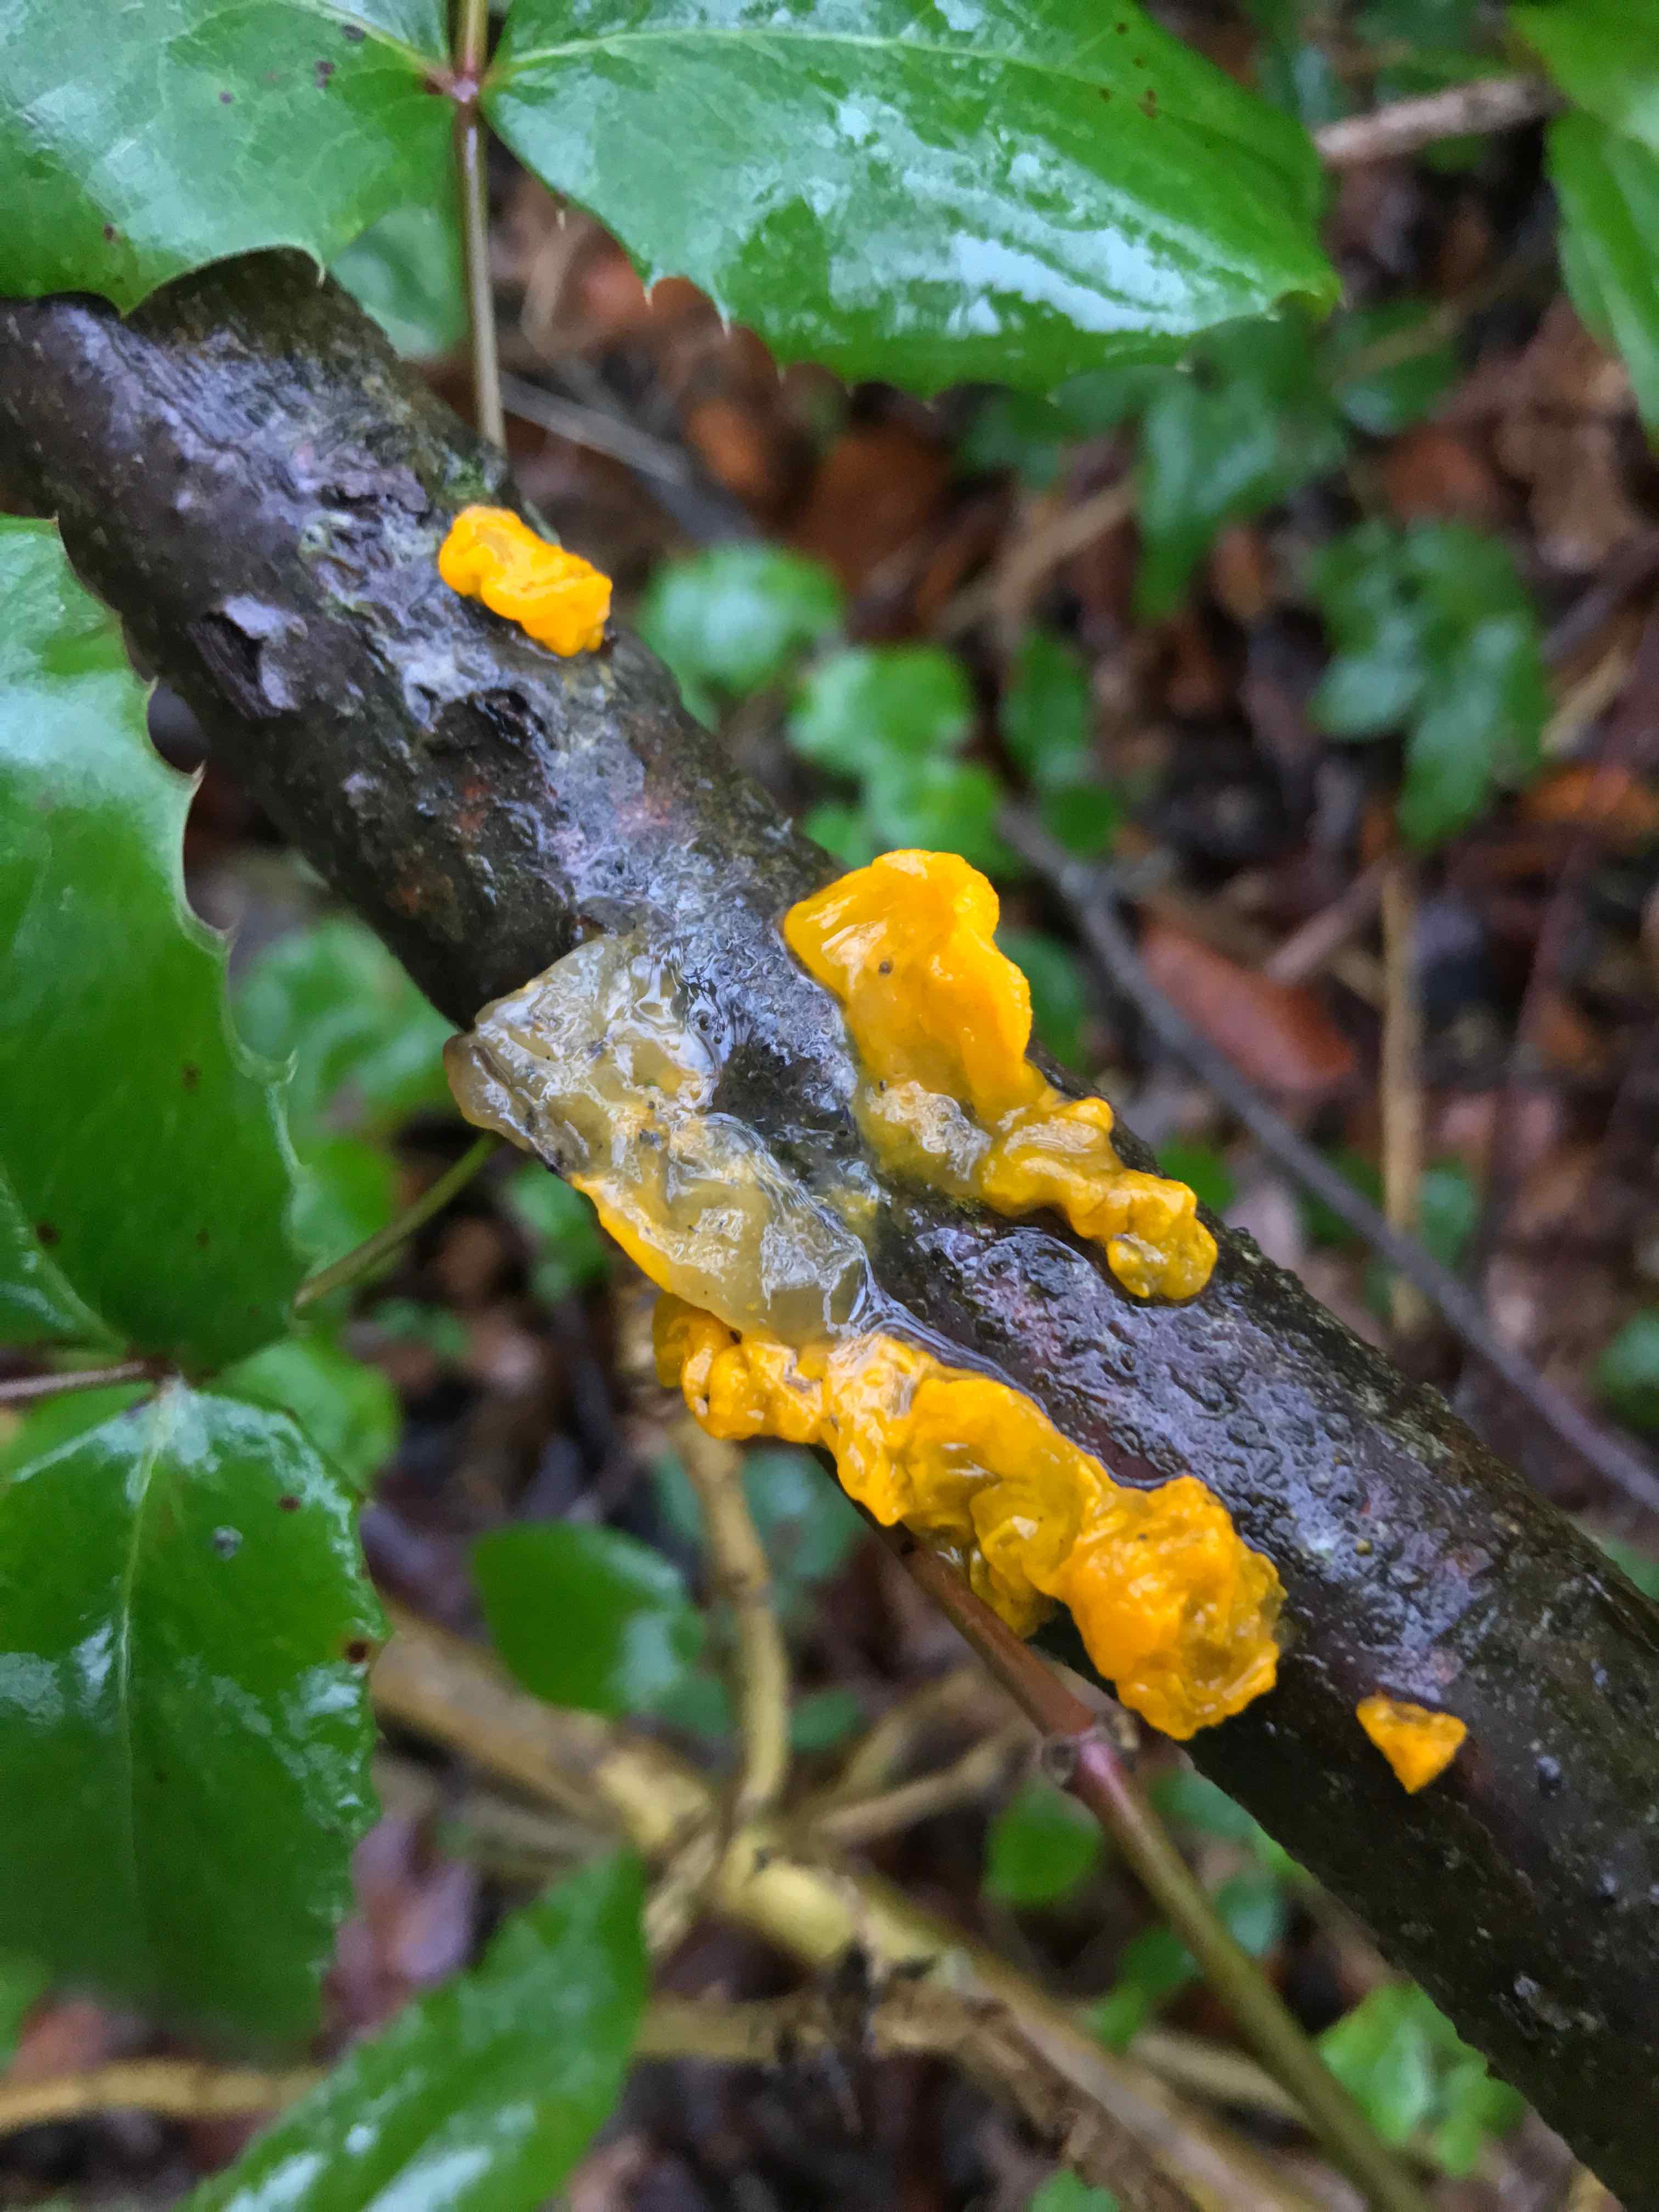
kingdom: Fungi
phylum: Basidiomycota
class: Tremellomycetes
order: Tremellales
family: Tremellaceae
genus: Tremella
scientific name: Tremella mesenterica
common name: gul bævresvamp
